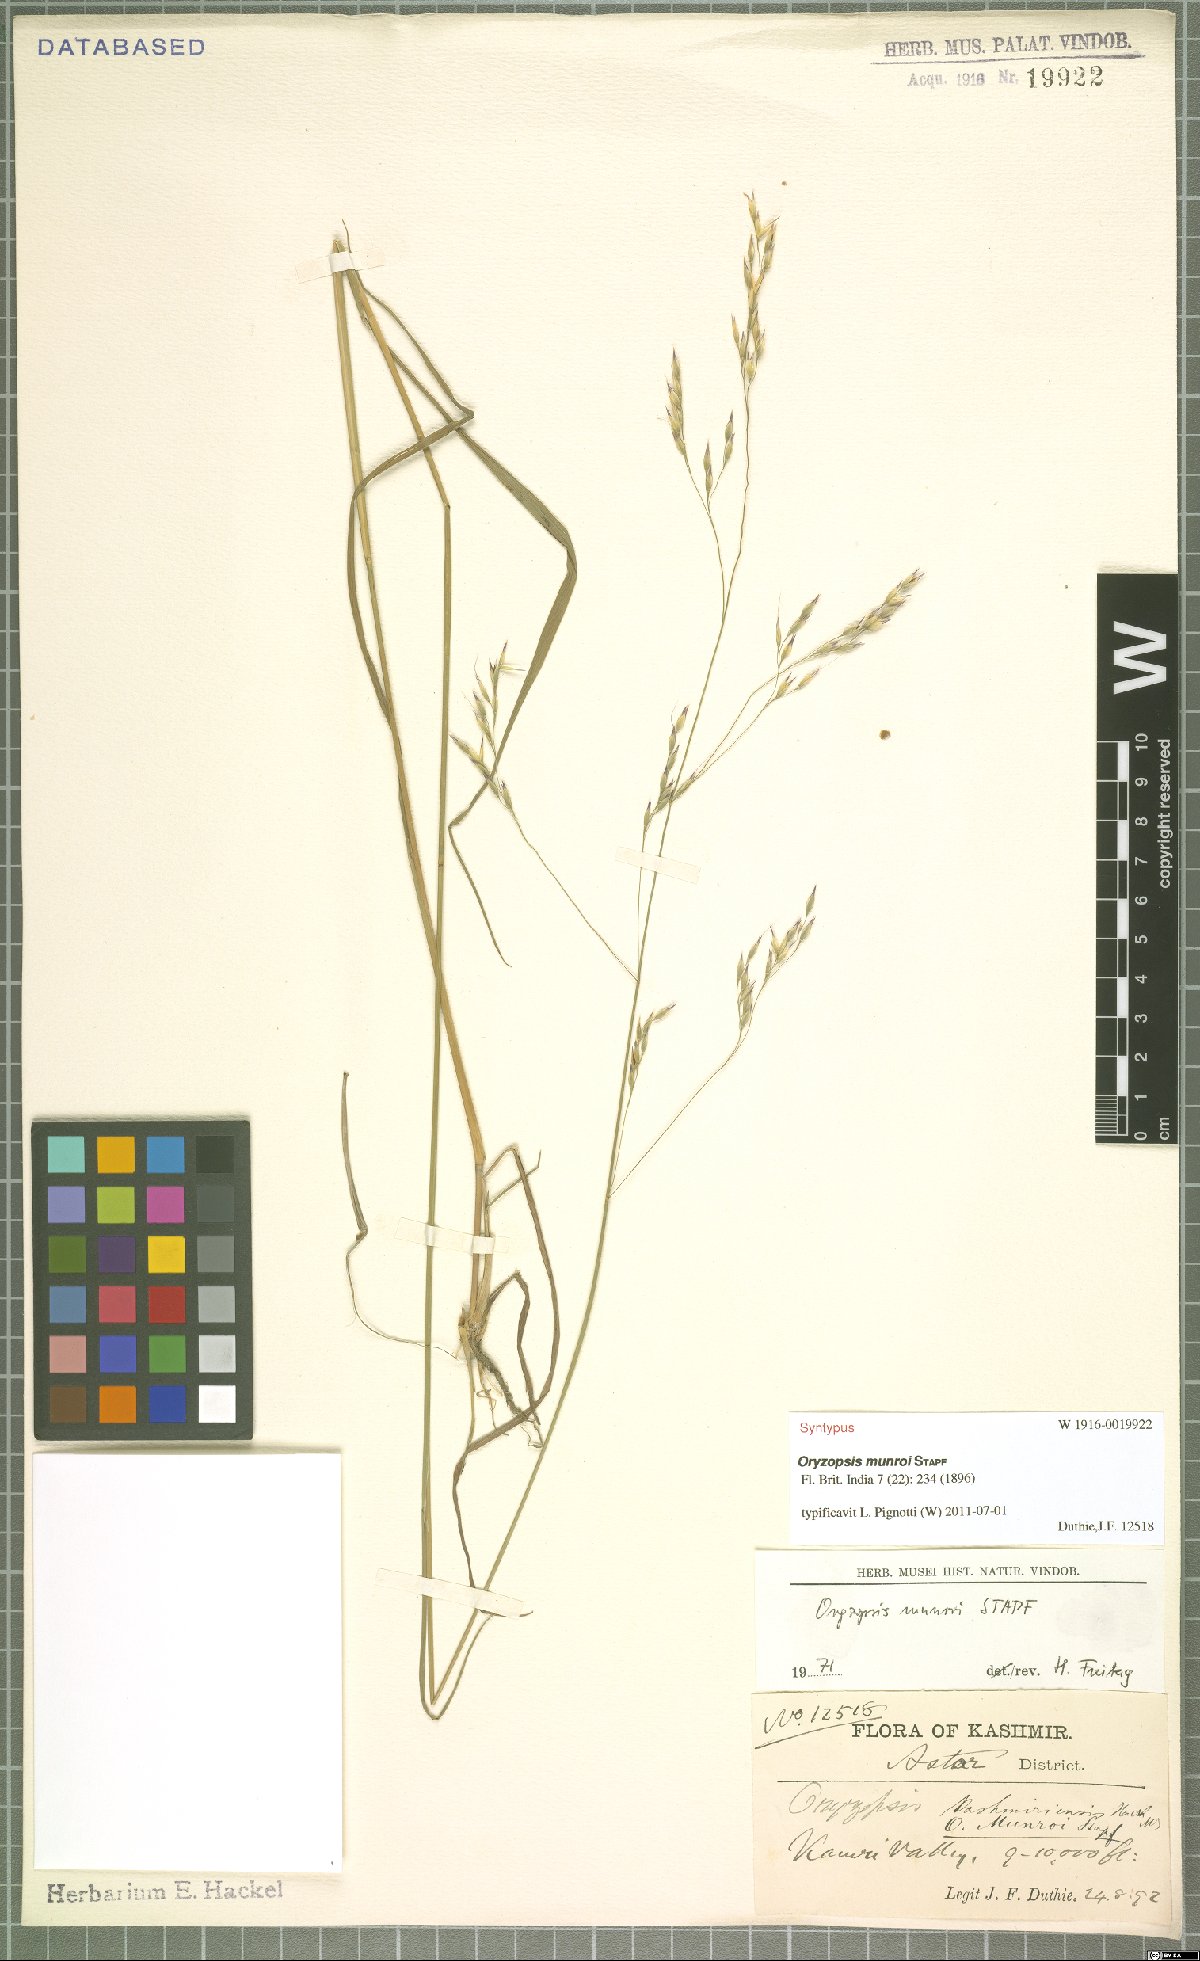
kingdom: Plantae
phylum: Tracheophyta
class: Liliopsida
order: Poales
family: Poaceae
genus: Piptatherum
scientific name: Piptatherum munroi
